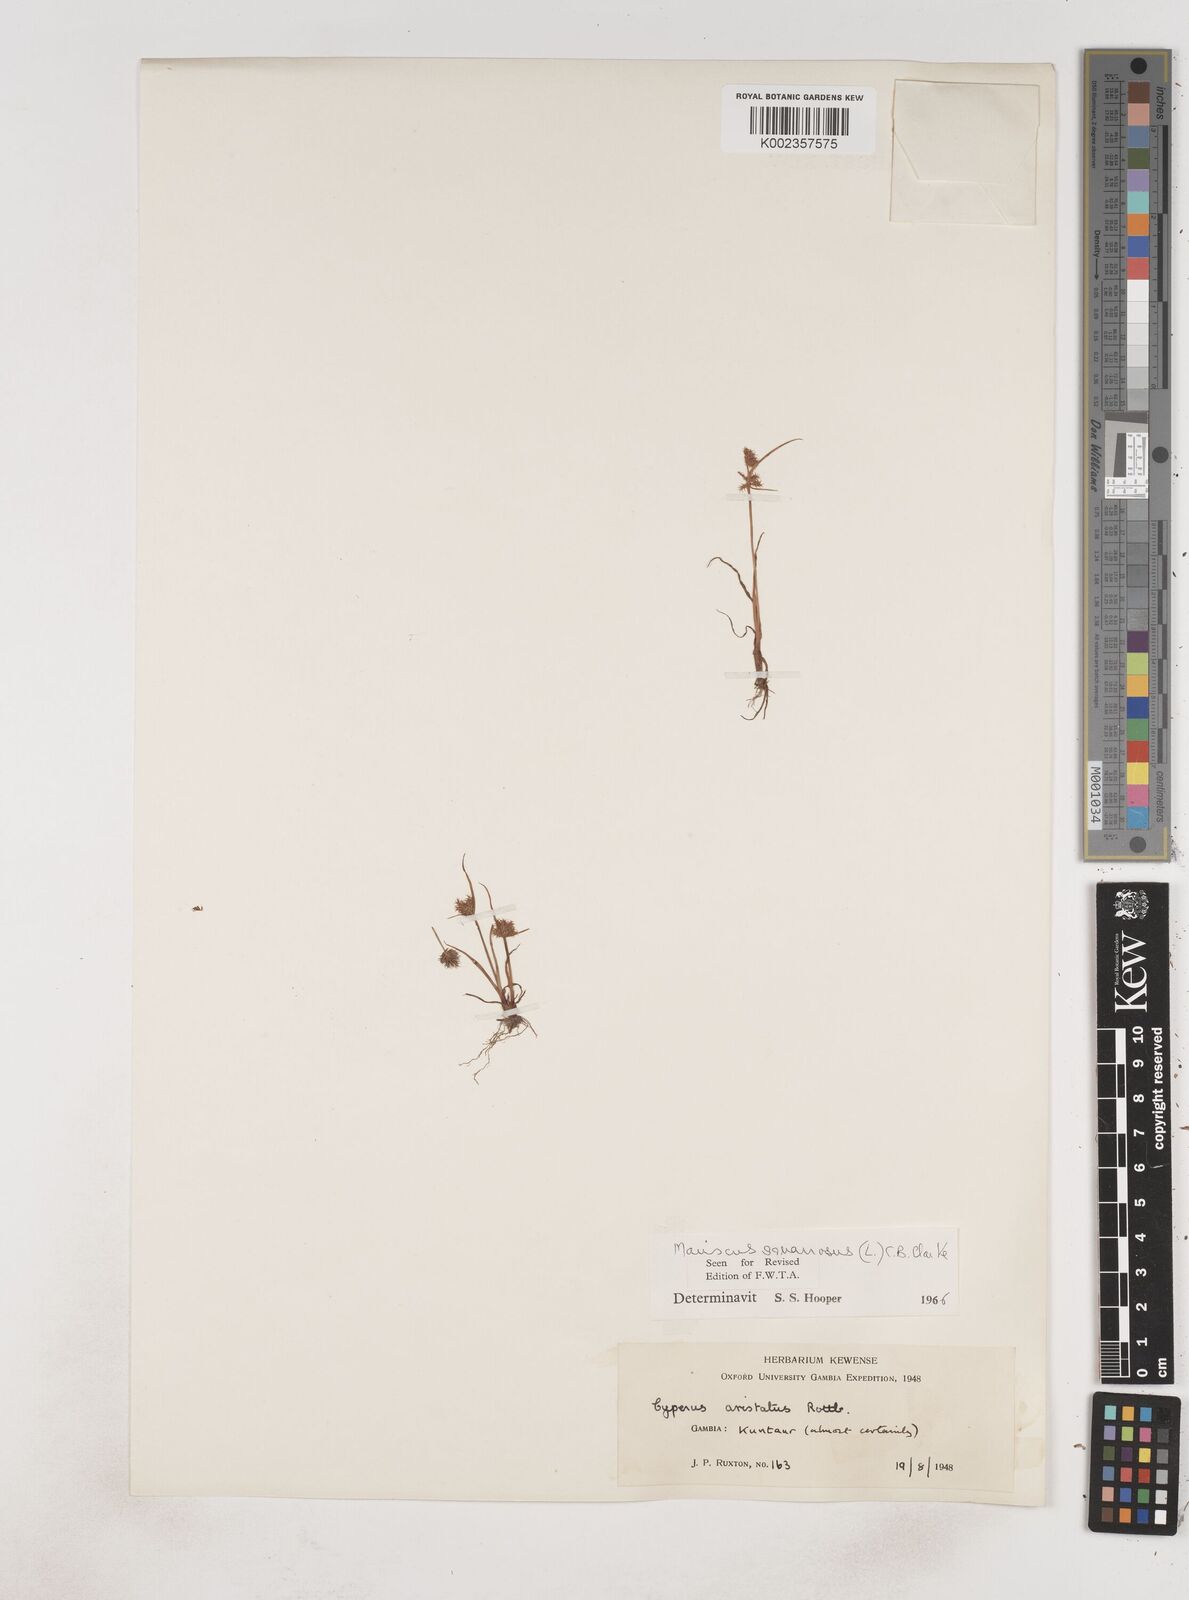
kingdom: Plantae
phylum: Tracheophyta
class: Liliopsida
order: Poales
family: Cyperaceae
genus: Cyperus
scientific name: Cyperus squarrosus
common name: Awned cyperus
